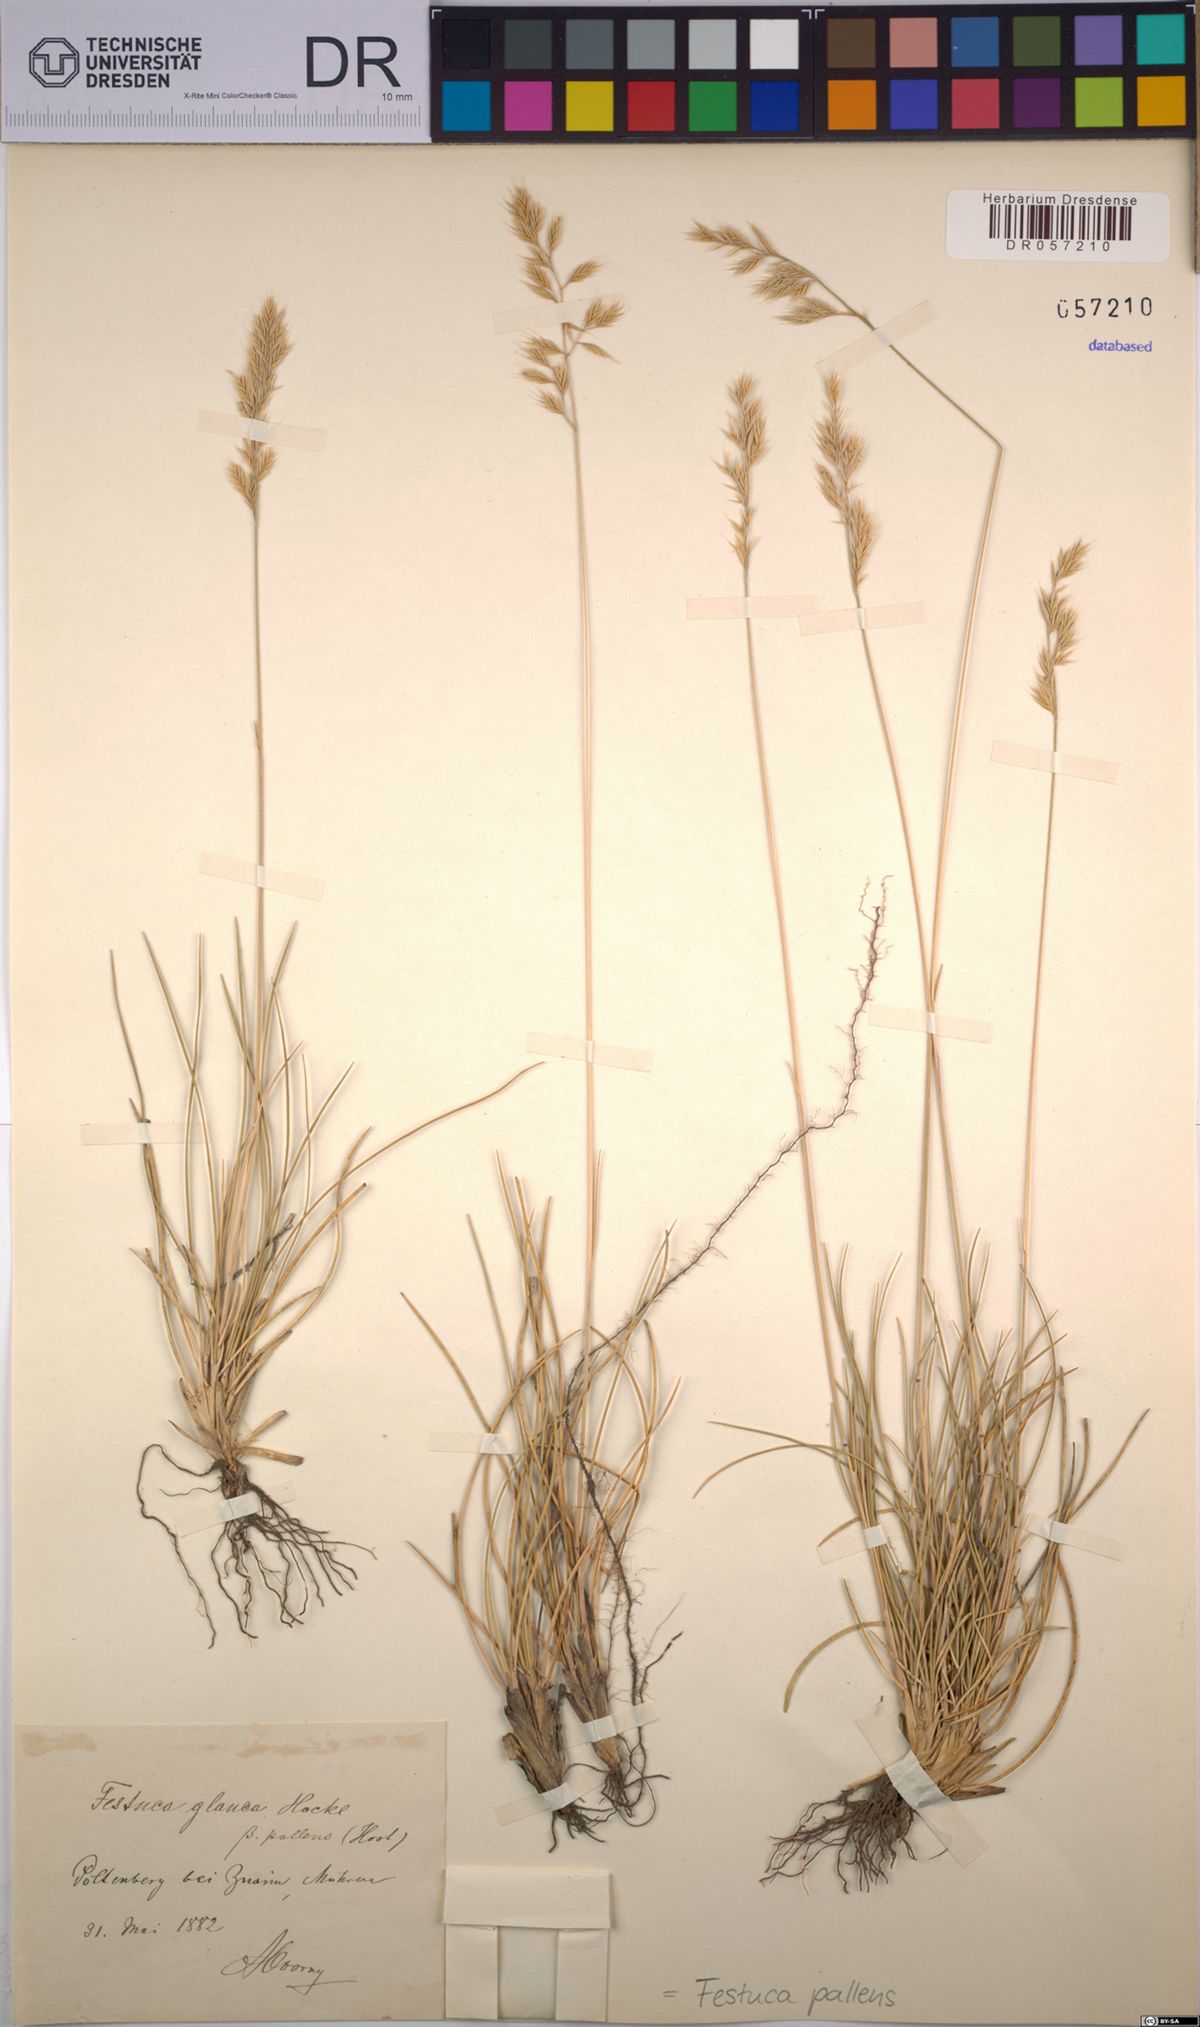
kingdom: Plantae
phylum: Tracheophyta
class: Liliopsida
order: Poales
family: Poaceae
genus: Festuca
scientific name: Festuca pallens
